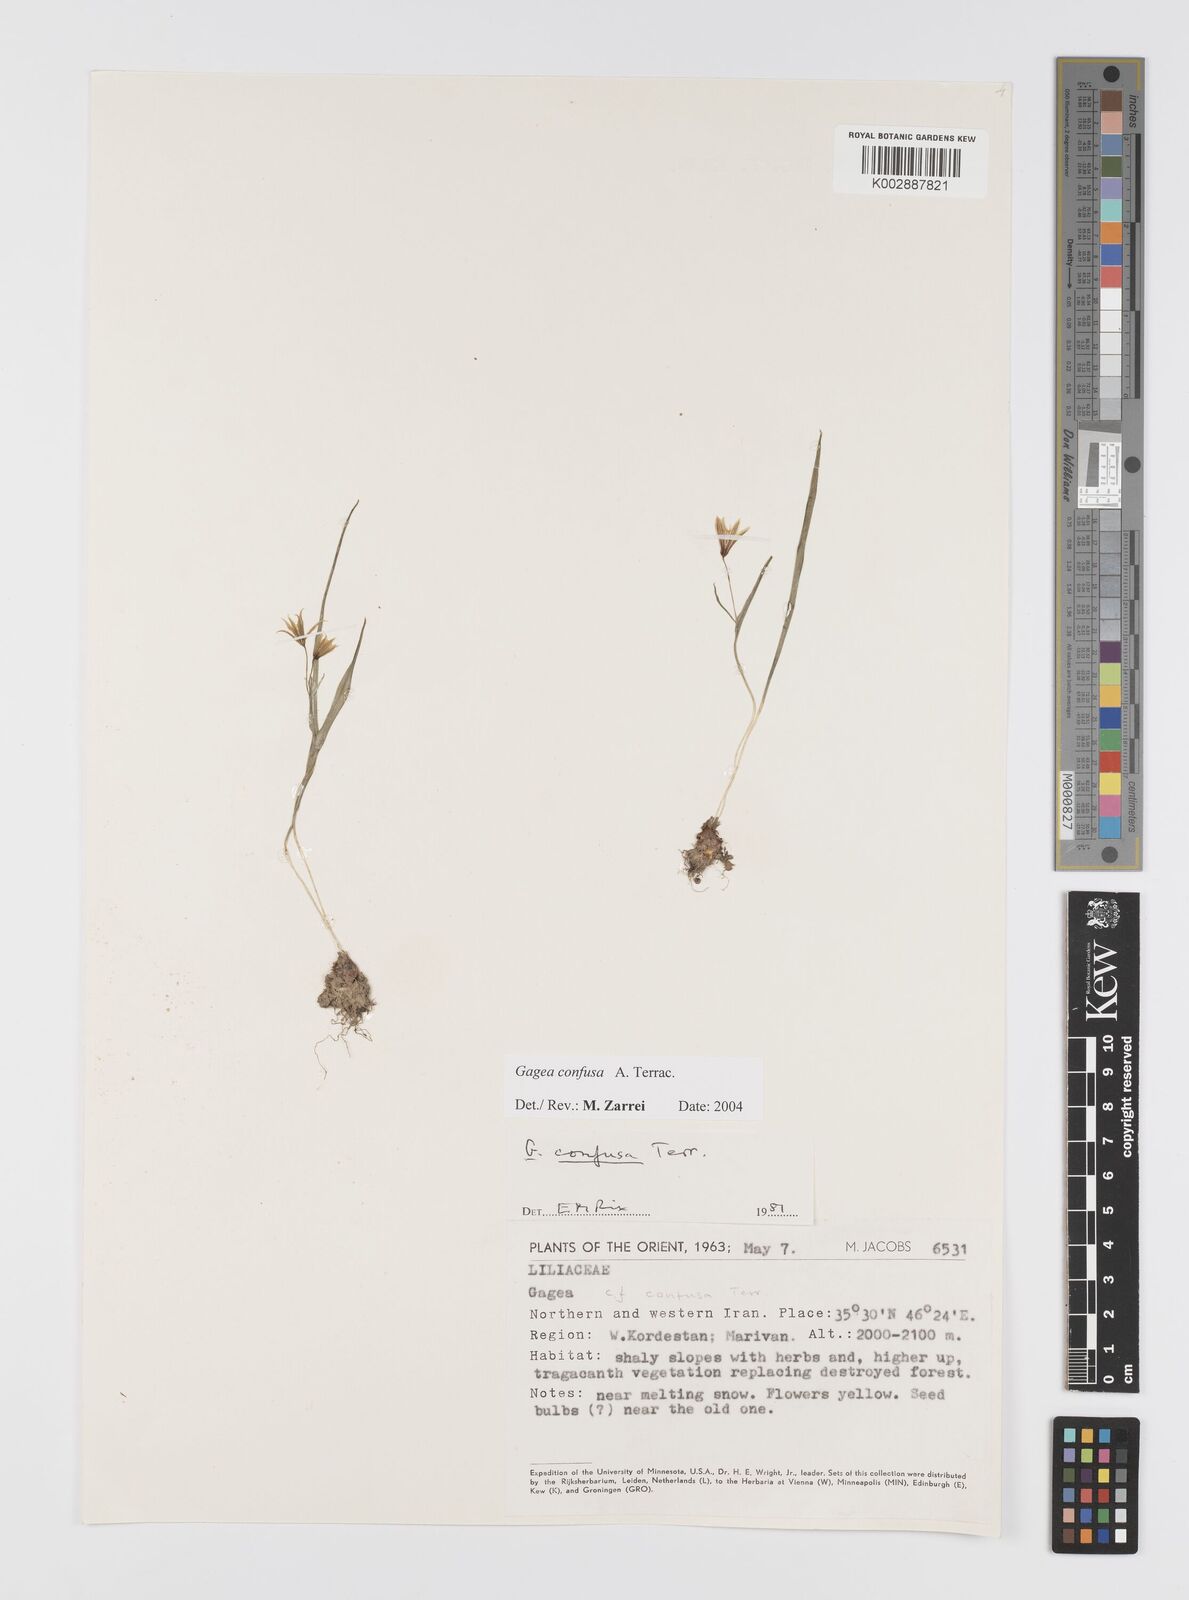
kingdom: Plantae
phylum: Tracheophyta
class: Liliopsida
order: Liliales
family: Liliaceae
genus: Gagea
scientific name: Gagea confusa
